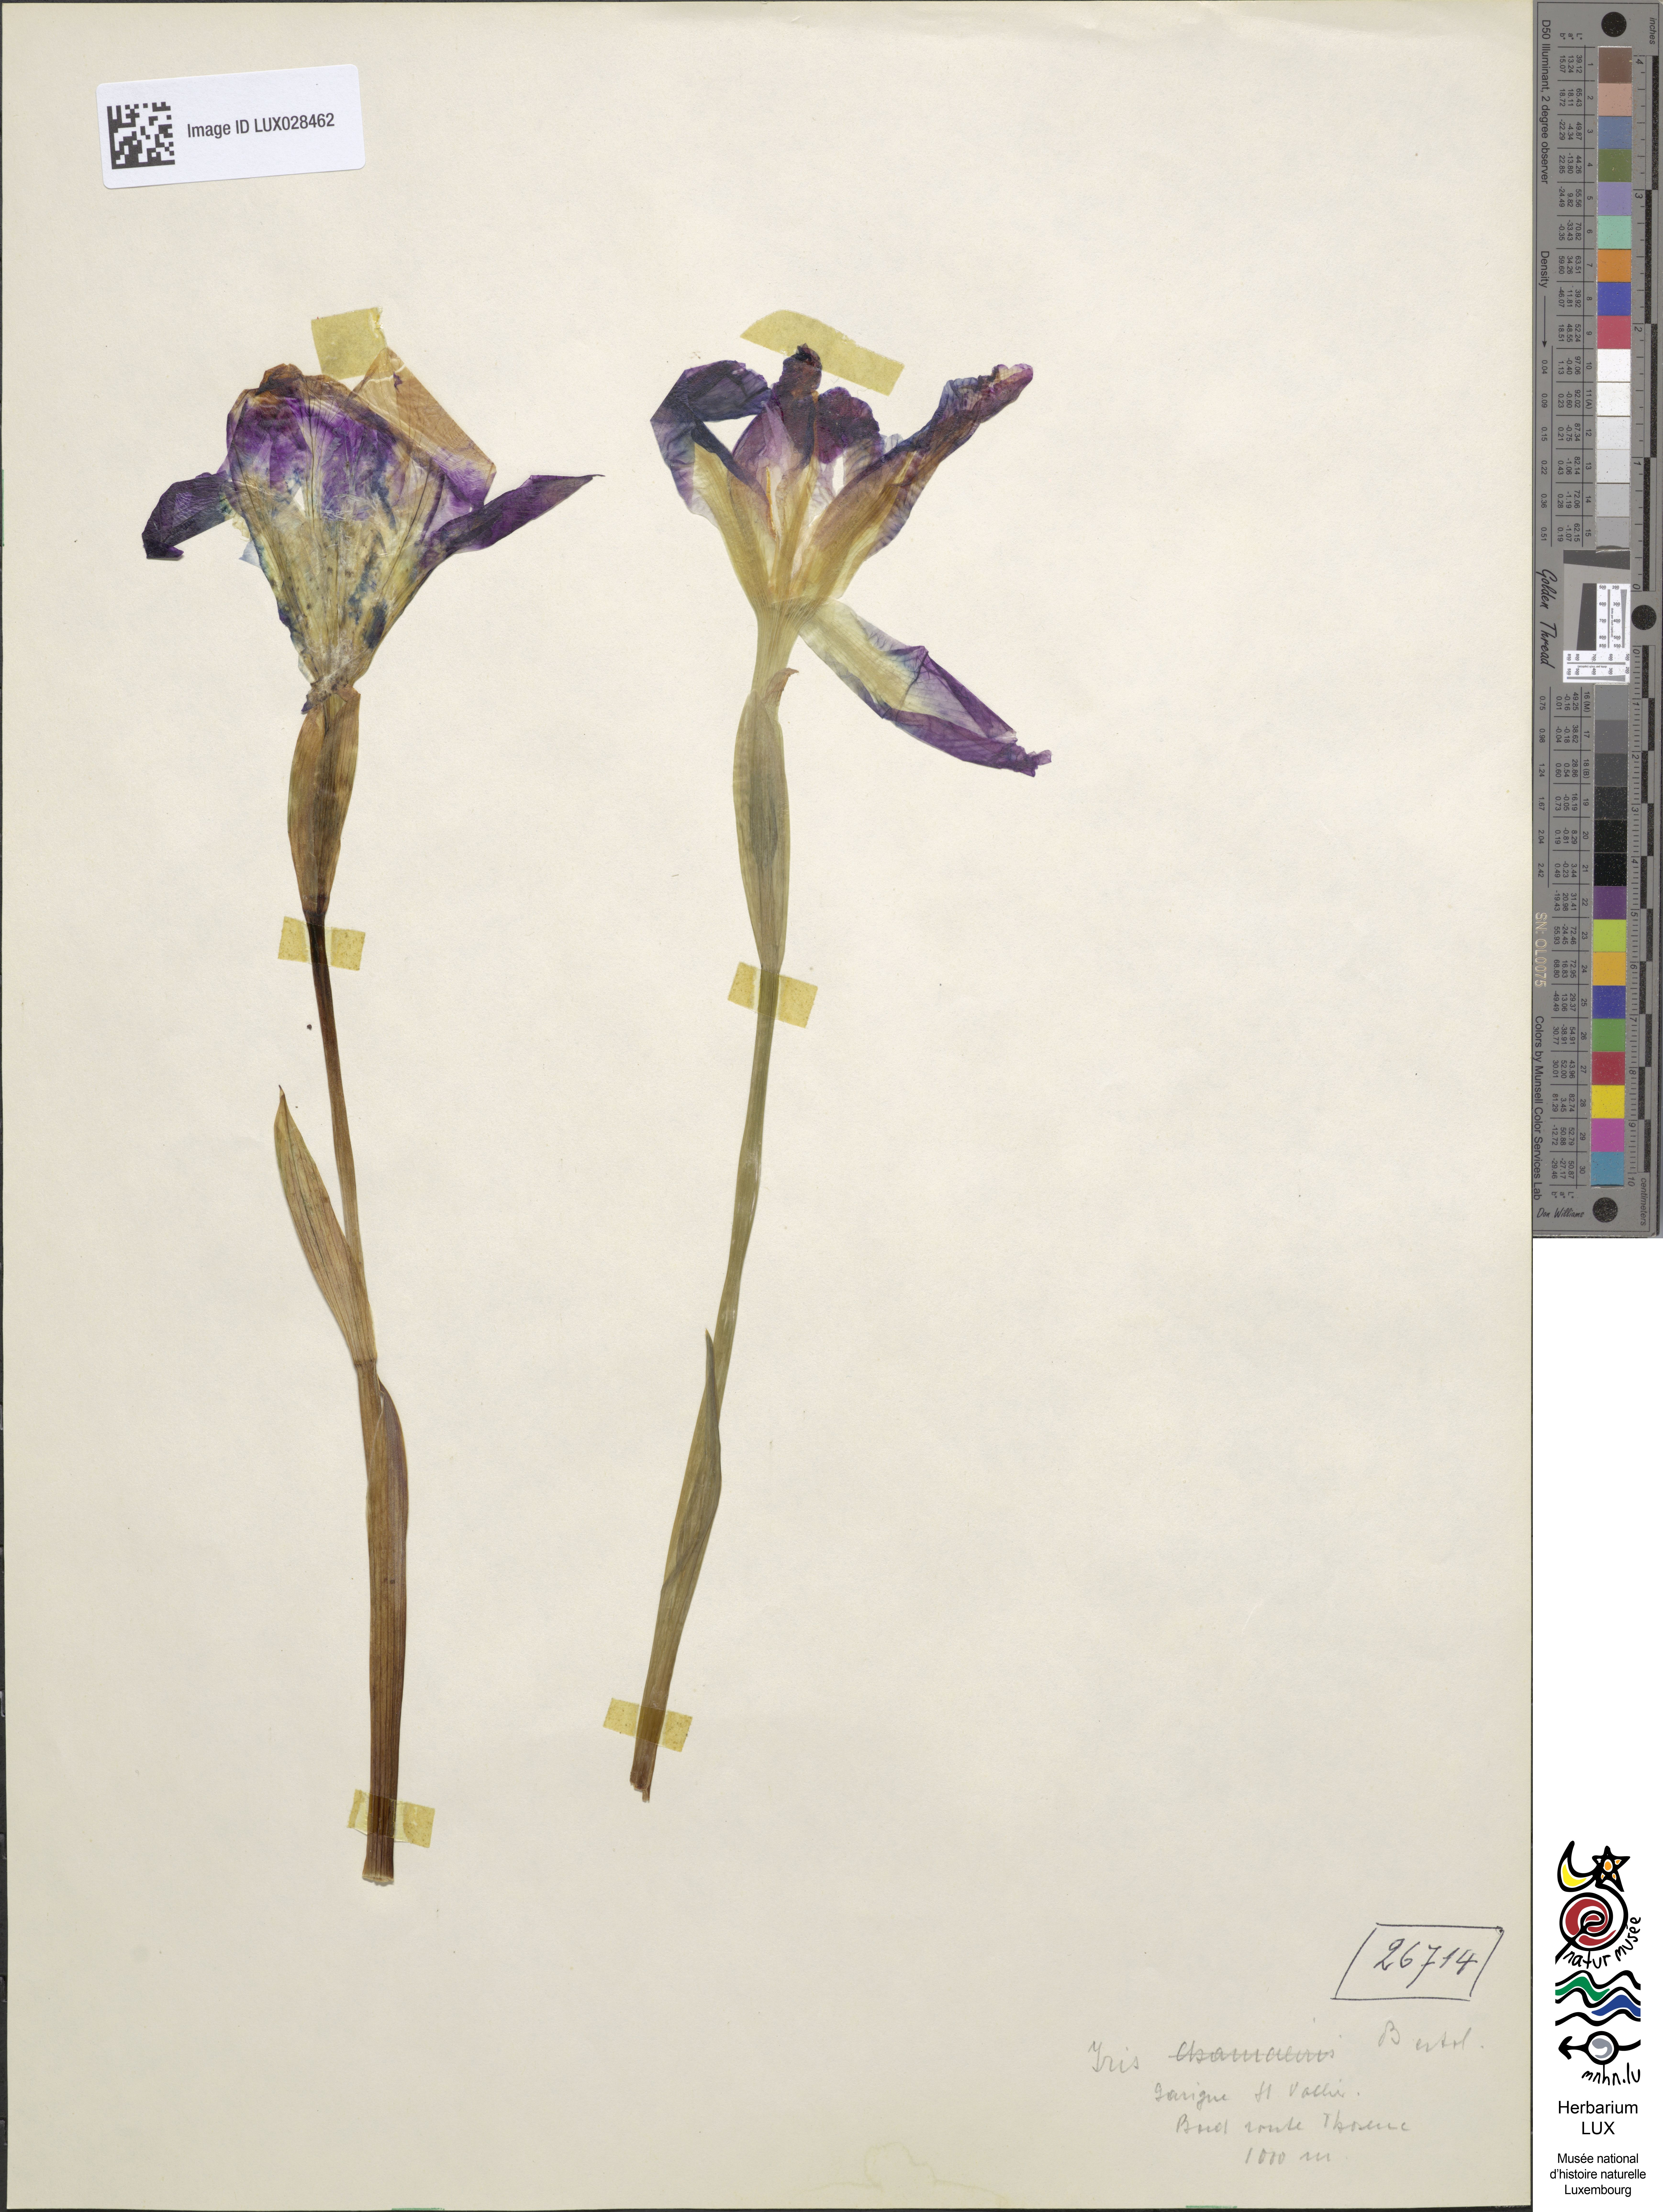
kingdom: Animalia
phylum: Arthropoda
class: Insecta
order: Coleoptera
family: Cerambycidae
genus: Itis
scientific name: Itis
